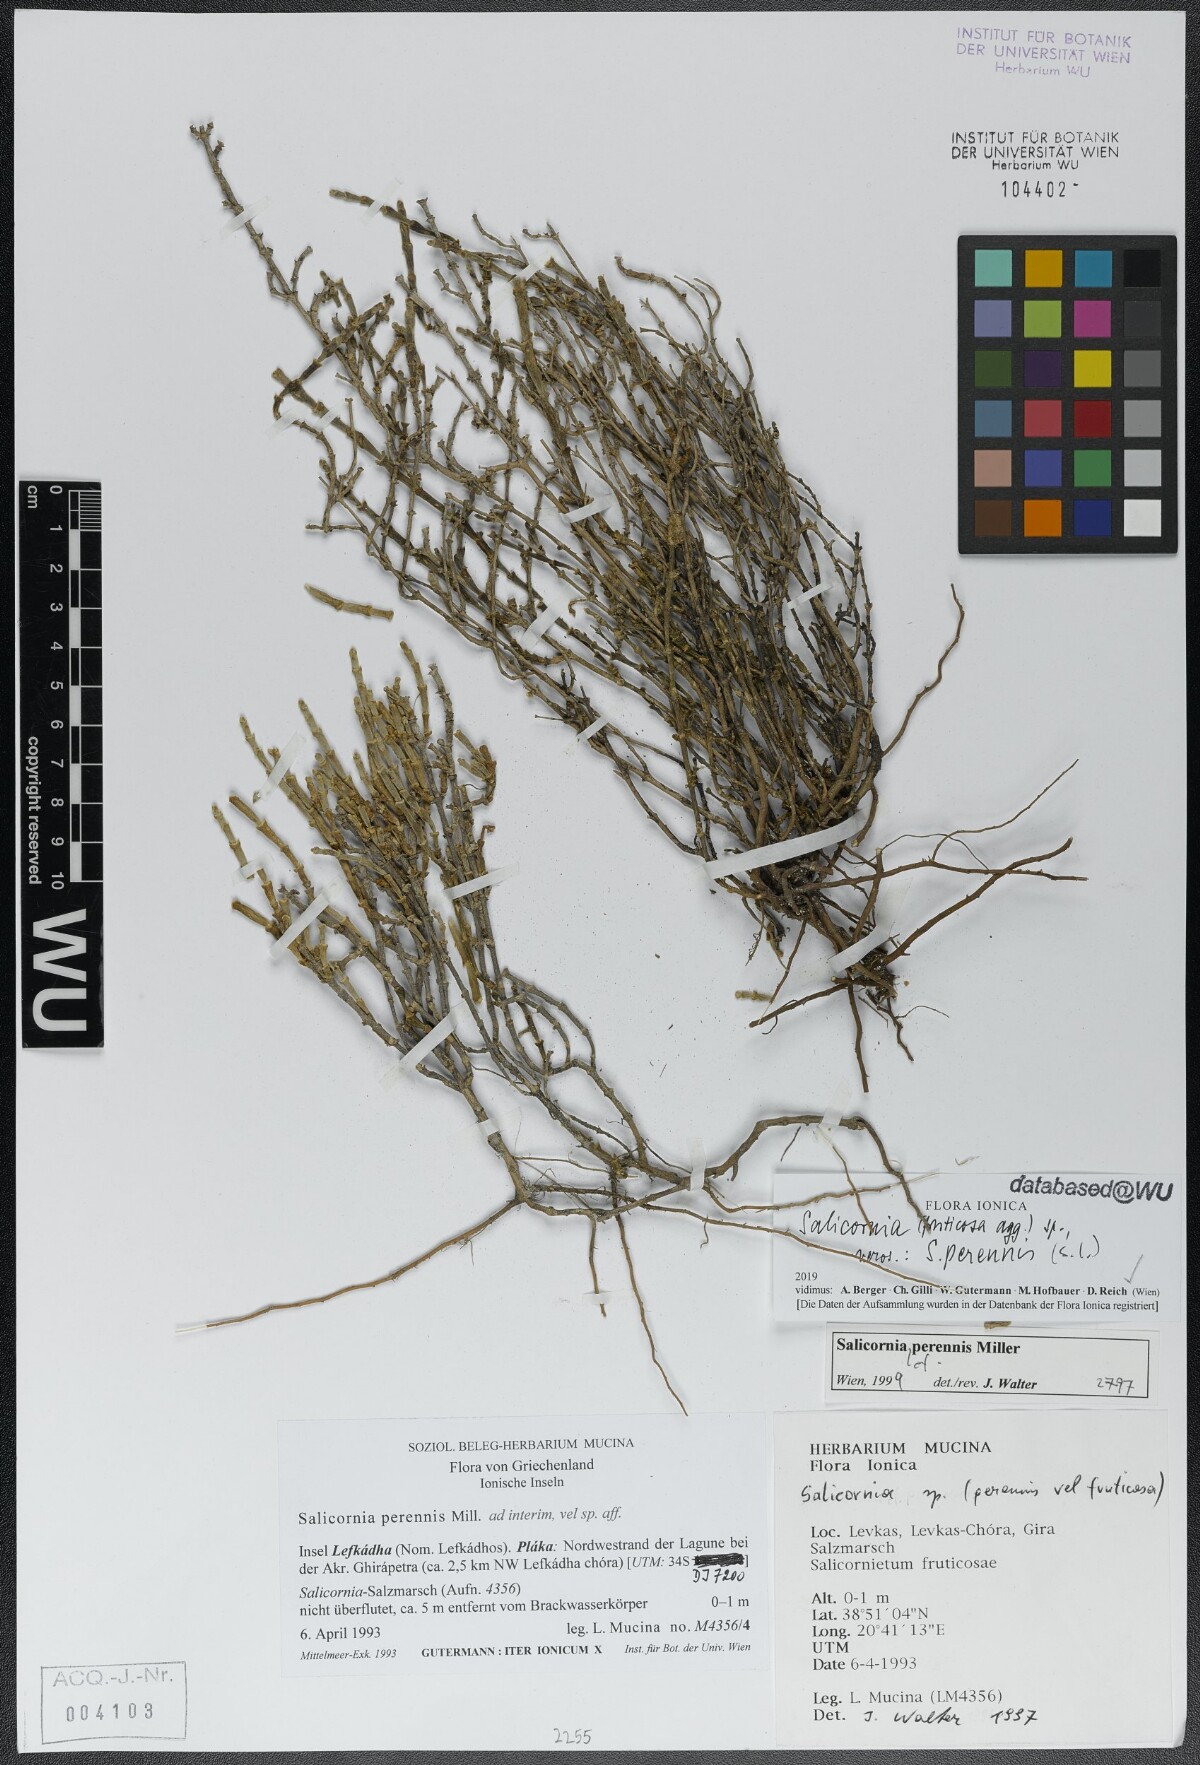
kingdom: Plantae
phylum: Tracheophyta
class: Magnoliopsida
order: Caryophyllales
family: Amaranthaceae
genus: Salicornia
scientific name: Salicornia perennis
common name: Chicken claws
